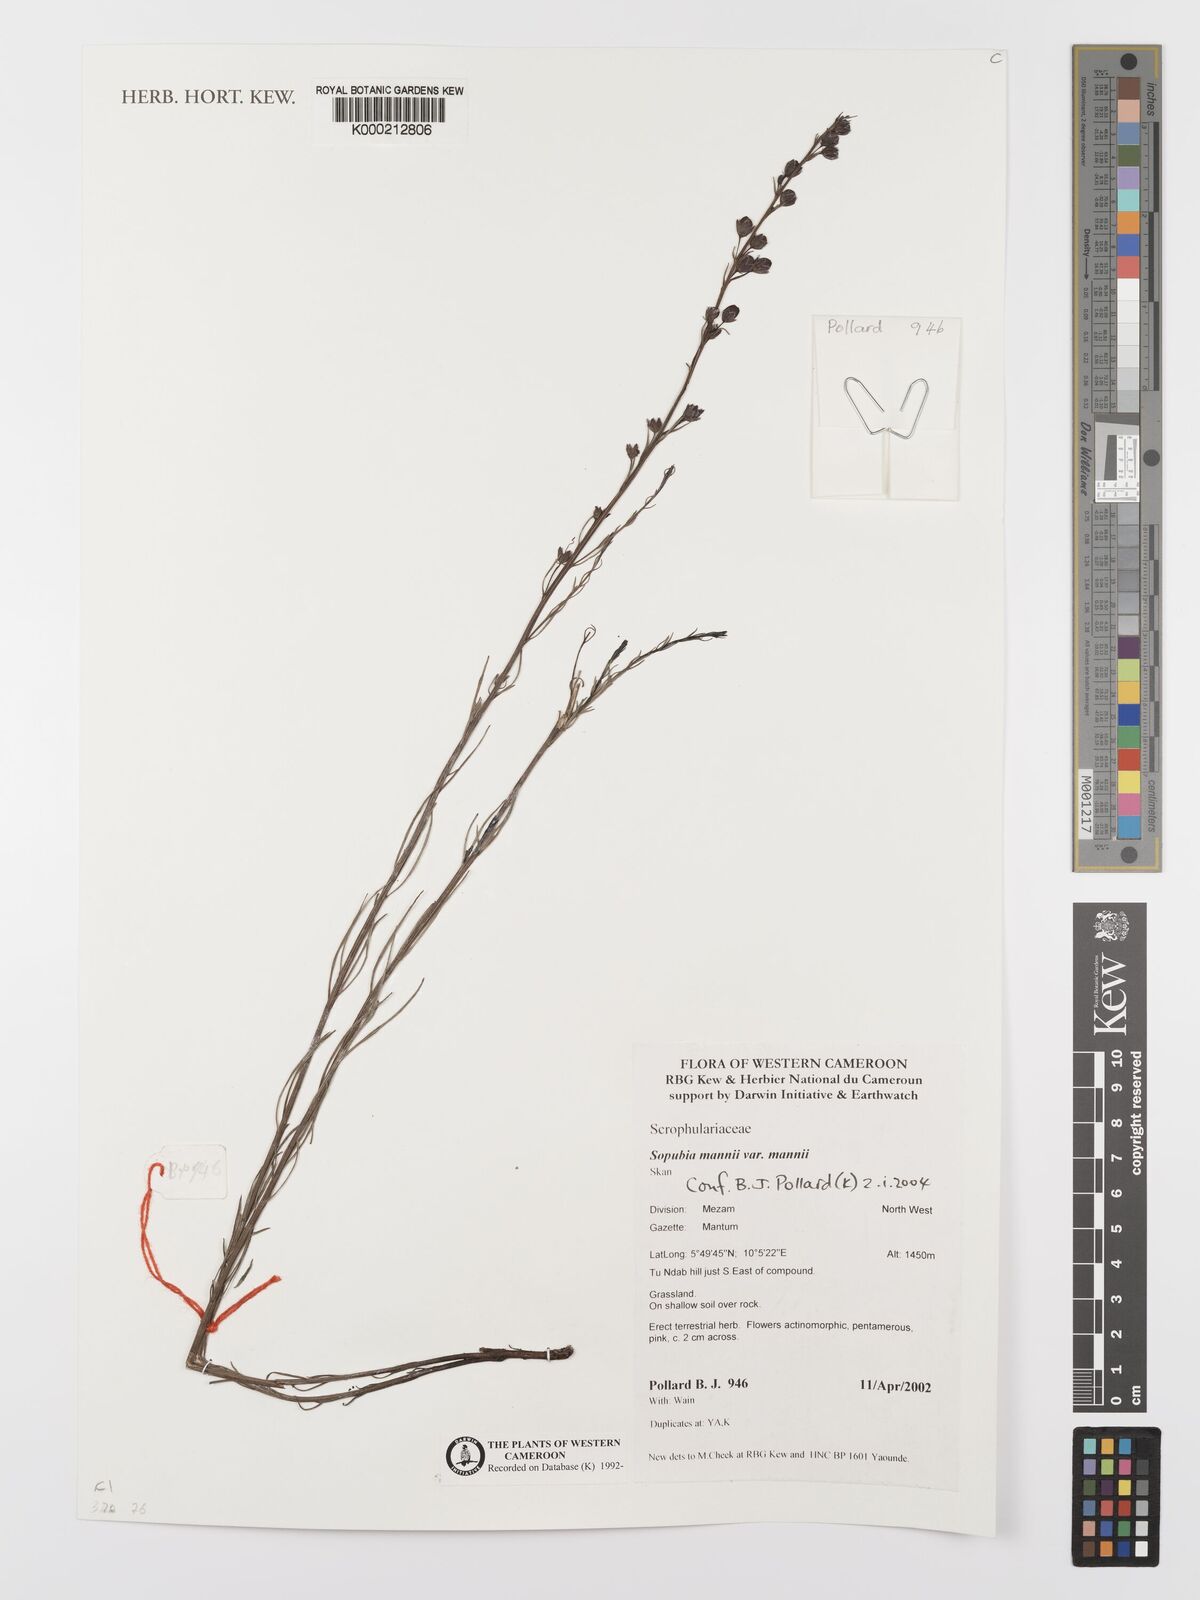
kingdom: Plantae
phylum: Tracheophyta
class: Magnoliopsida
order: Lamiales
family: Orobanchaceae
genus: Sopubia
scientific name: Sopubia mannii
